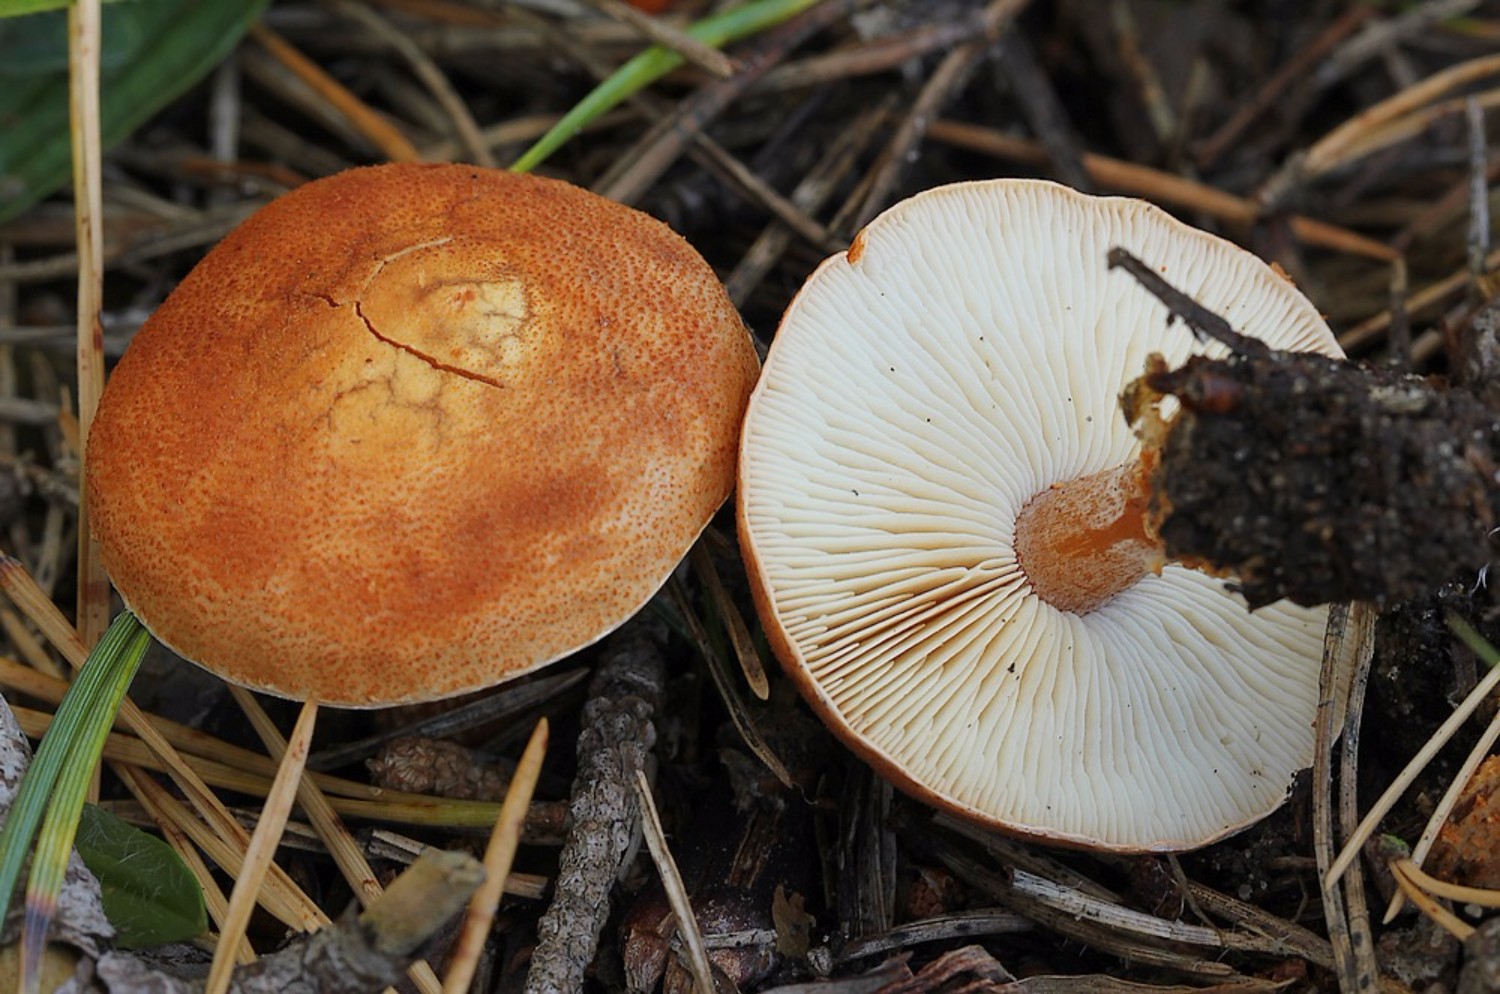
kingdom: Fungi
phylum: Basidiomycota
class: Agaricomycetes
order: Agaricales
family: Agaricaceae
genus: Cystodermella
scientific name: Cystodermella cinnabarina
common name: cinnober-grynhat
